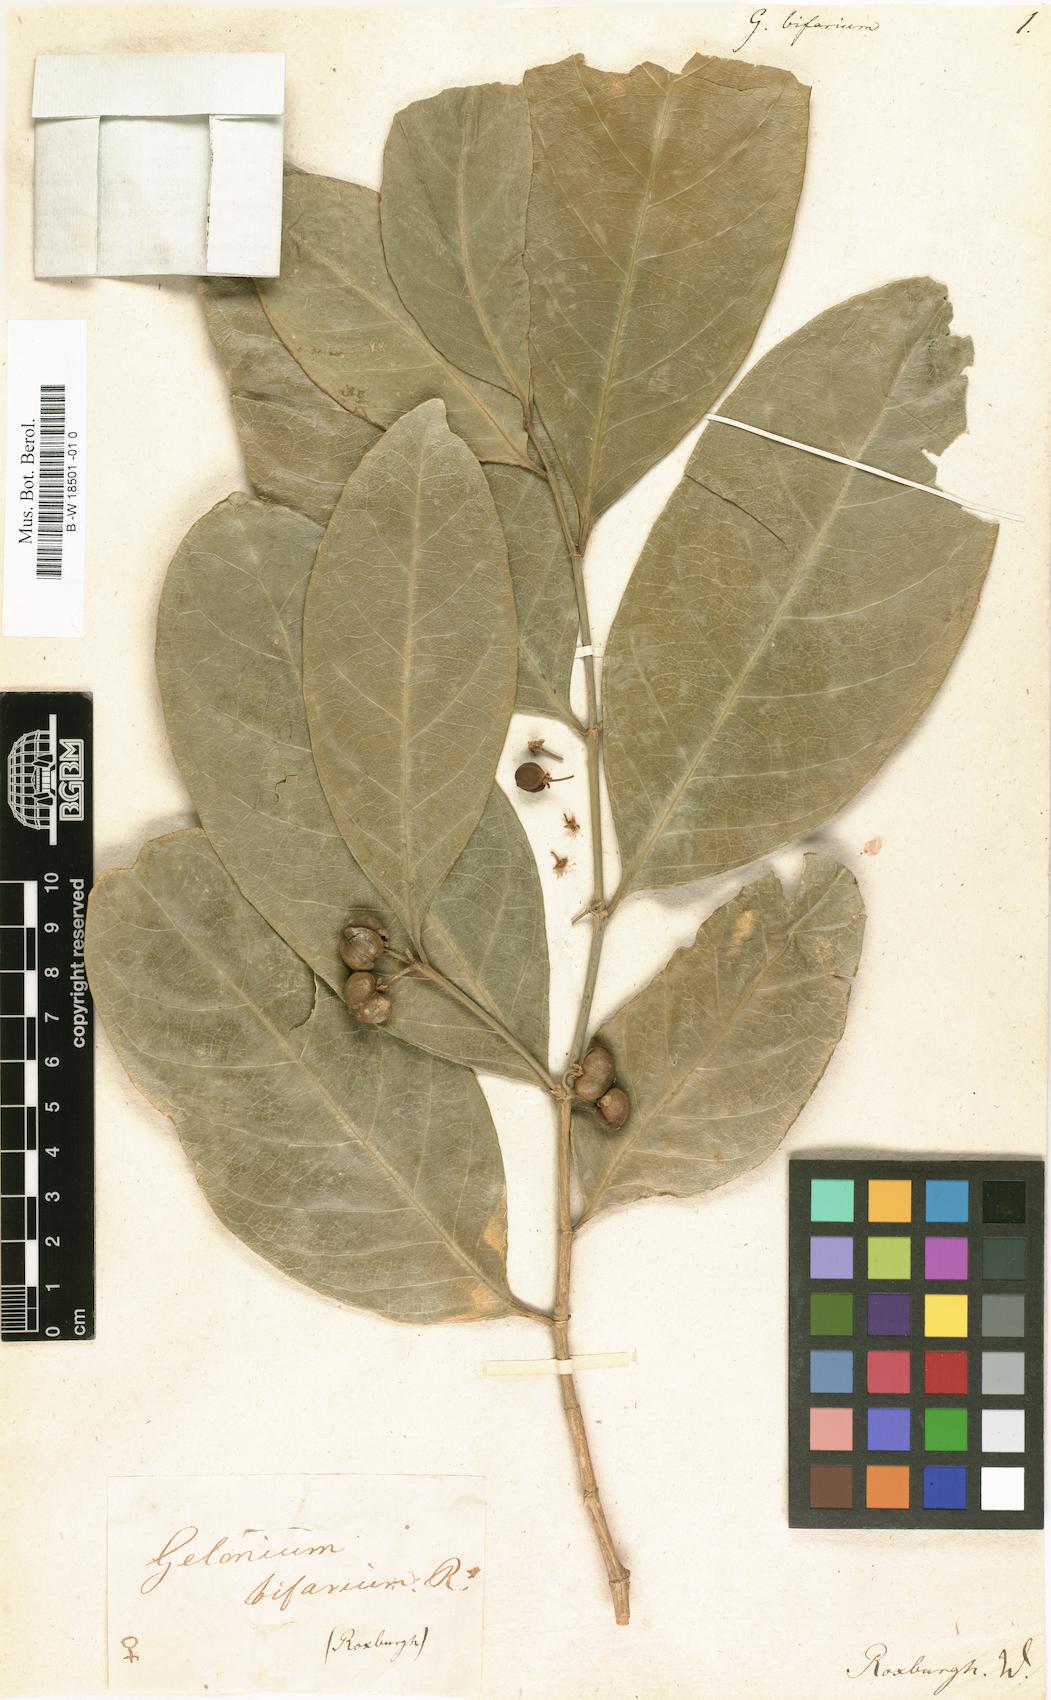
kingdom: Plantae
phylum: Tracheophyta
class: Magnoliopsida
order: Malpighiales
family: Euphorbiaceae
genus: Suregada
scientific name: Suregada bifaria
